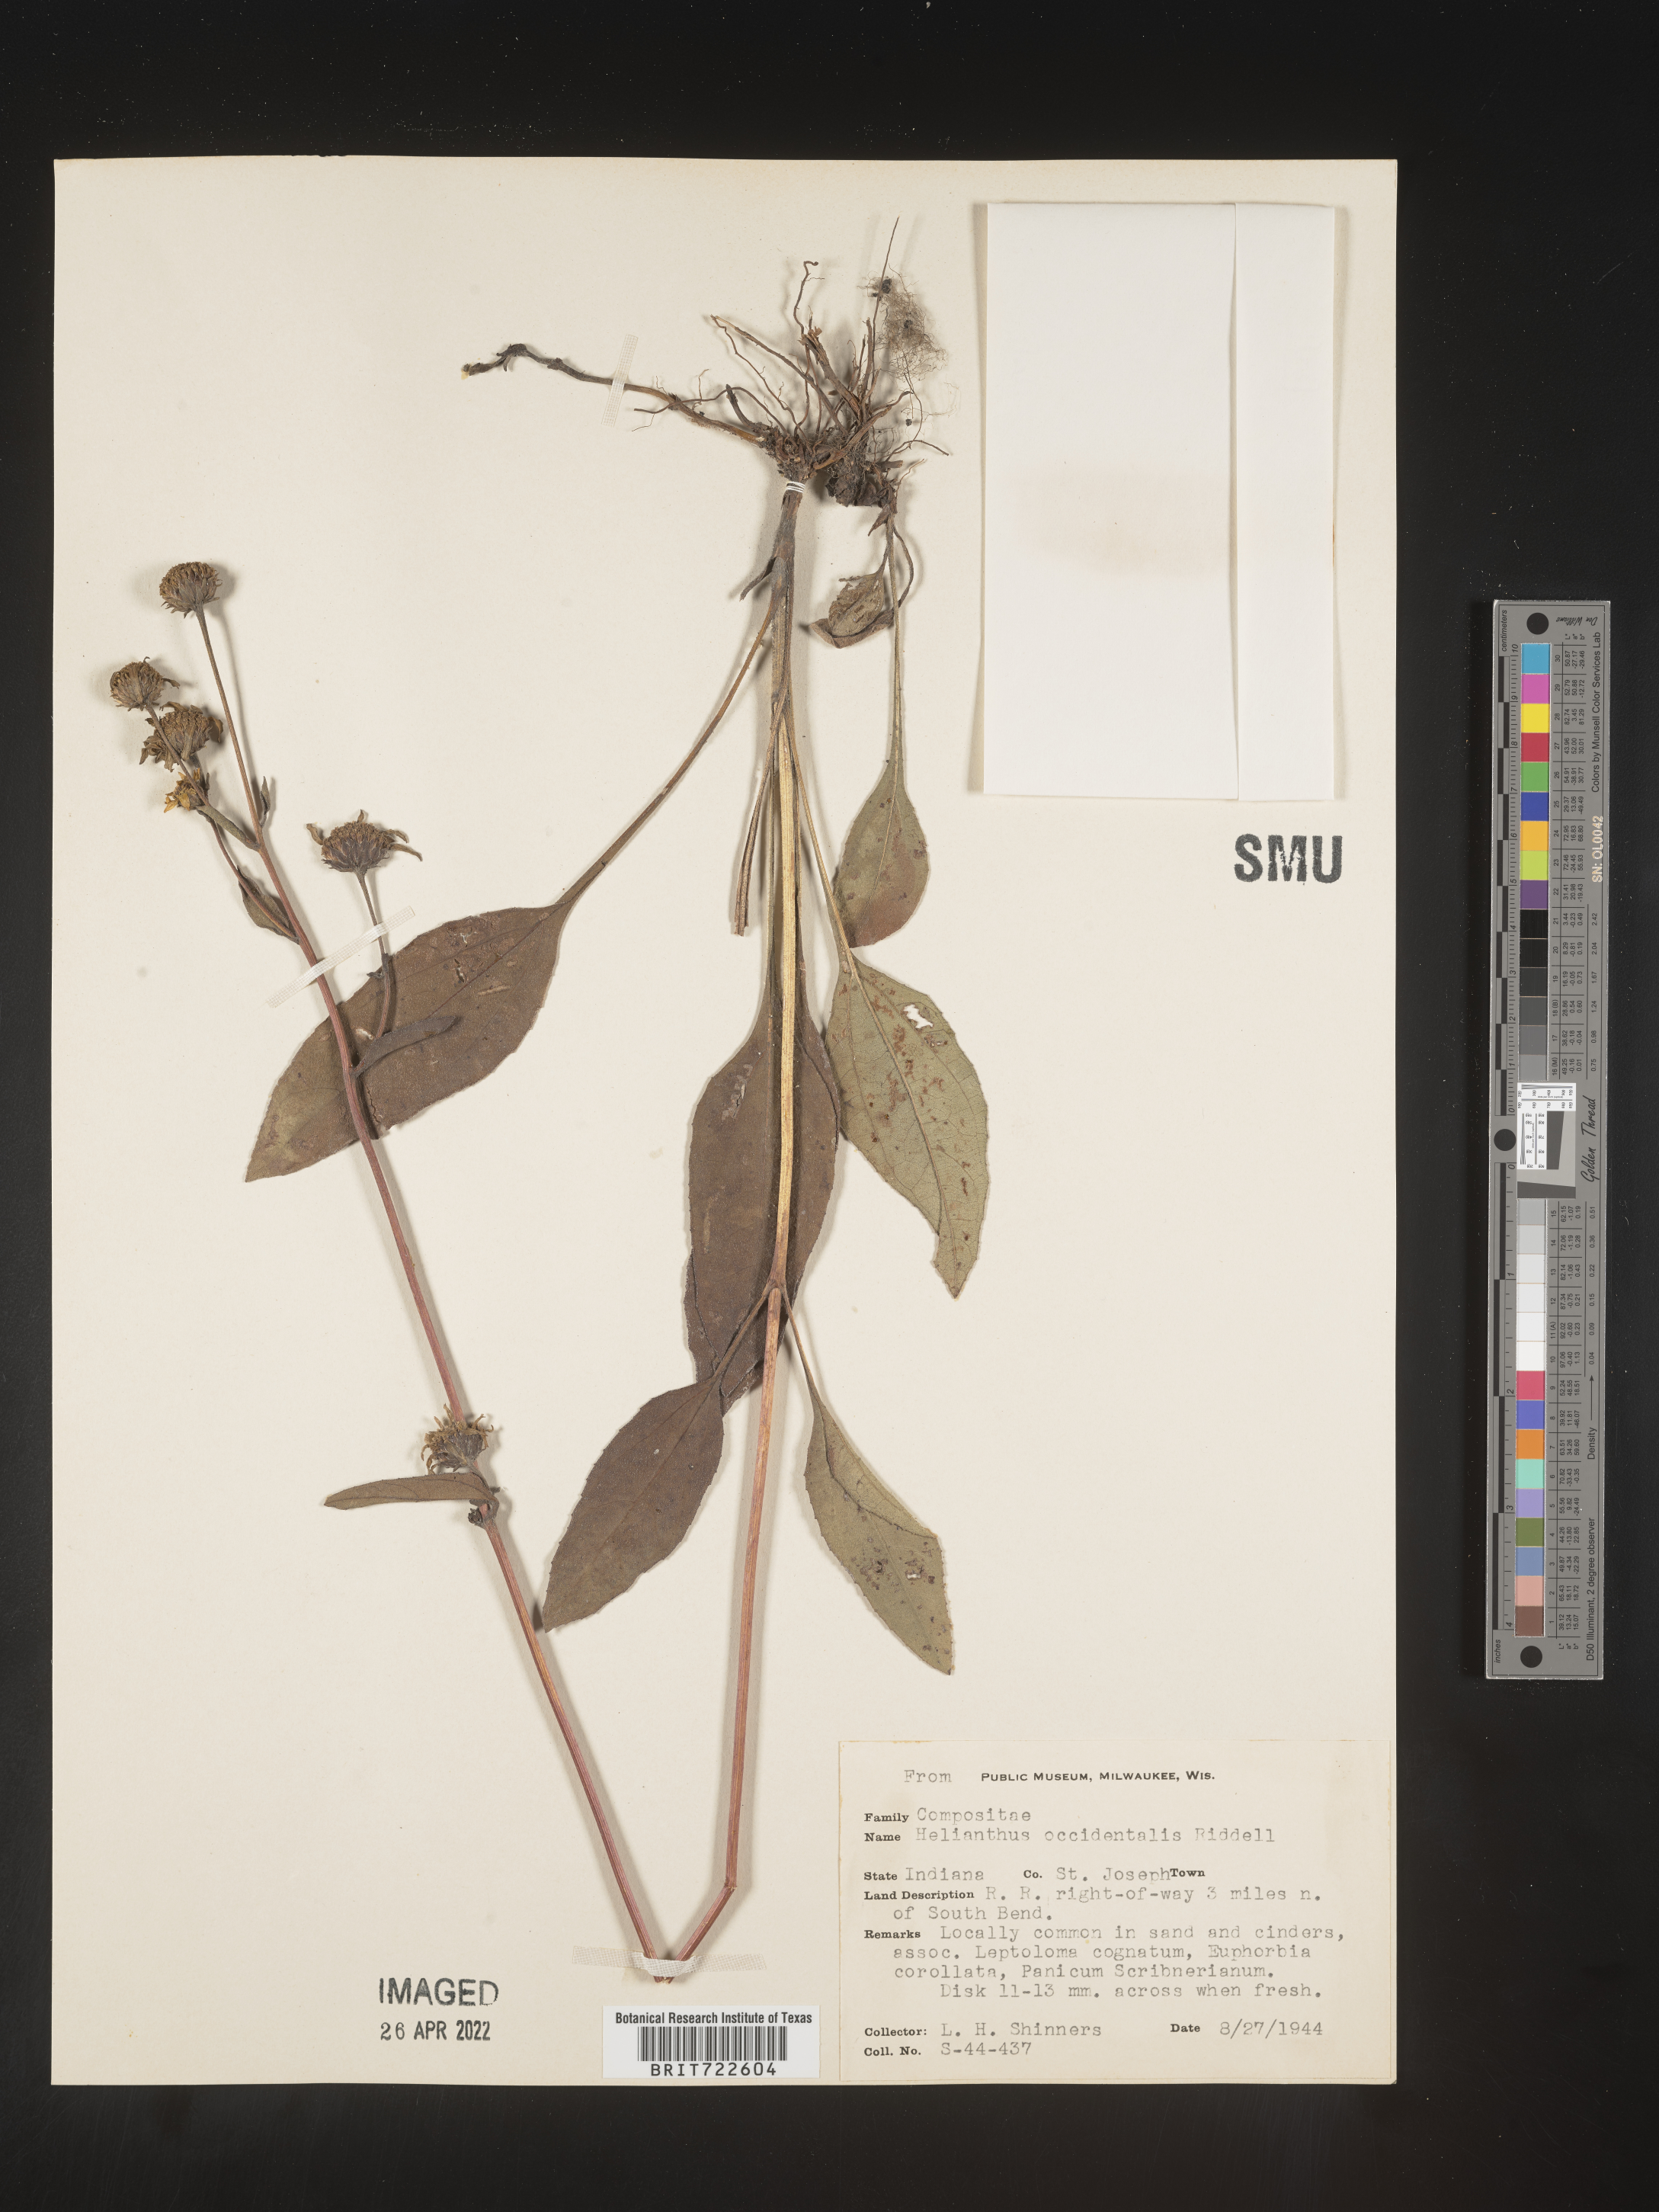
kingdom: Plantae
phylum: Tracheophyta
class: Magnoliopsida
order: Asterales
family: Asteraceae
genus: Helianthus
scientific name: Helianthus occidentalis
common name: Western sunflower
